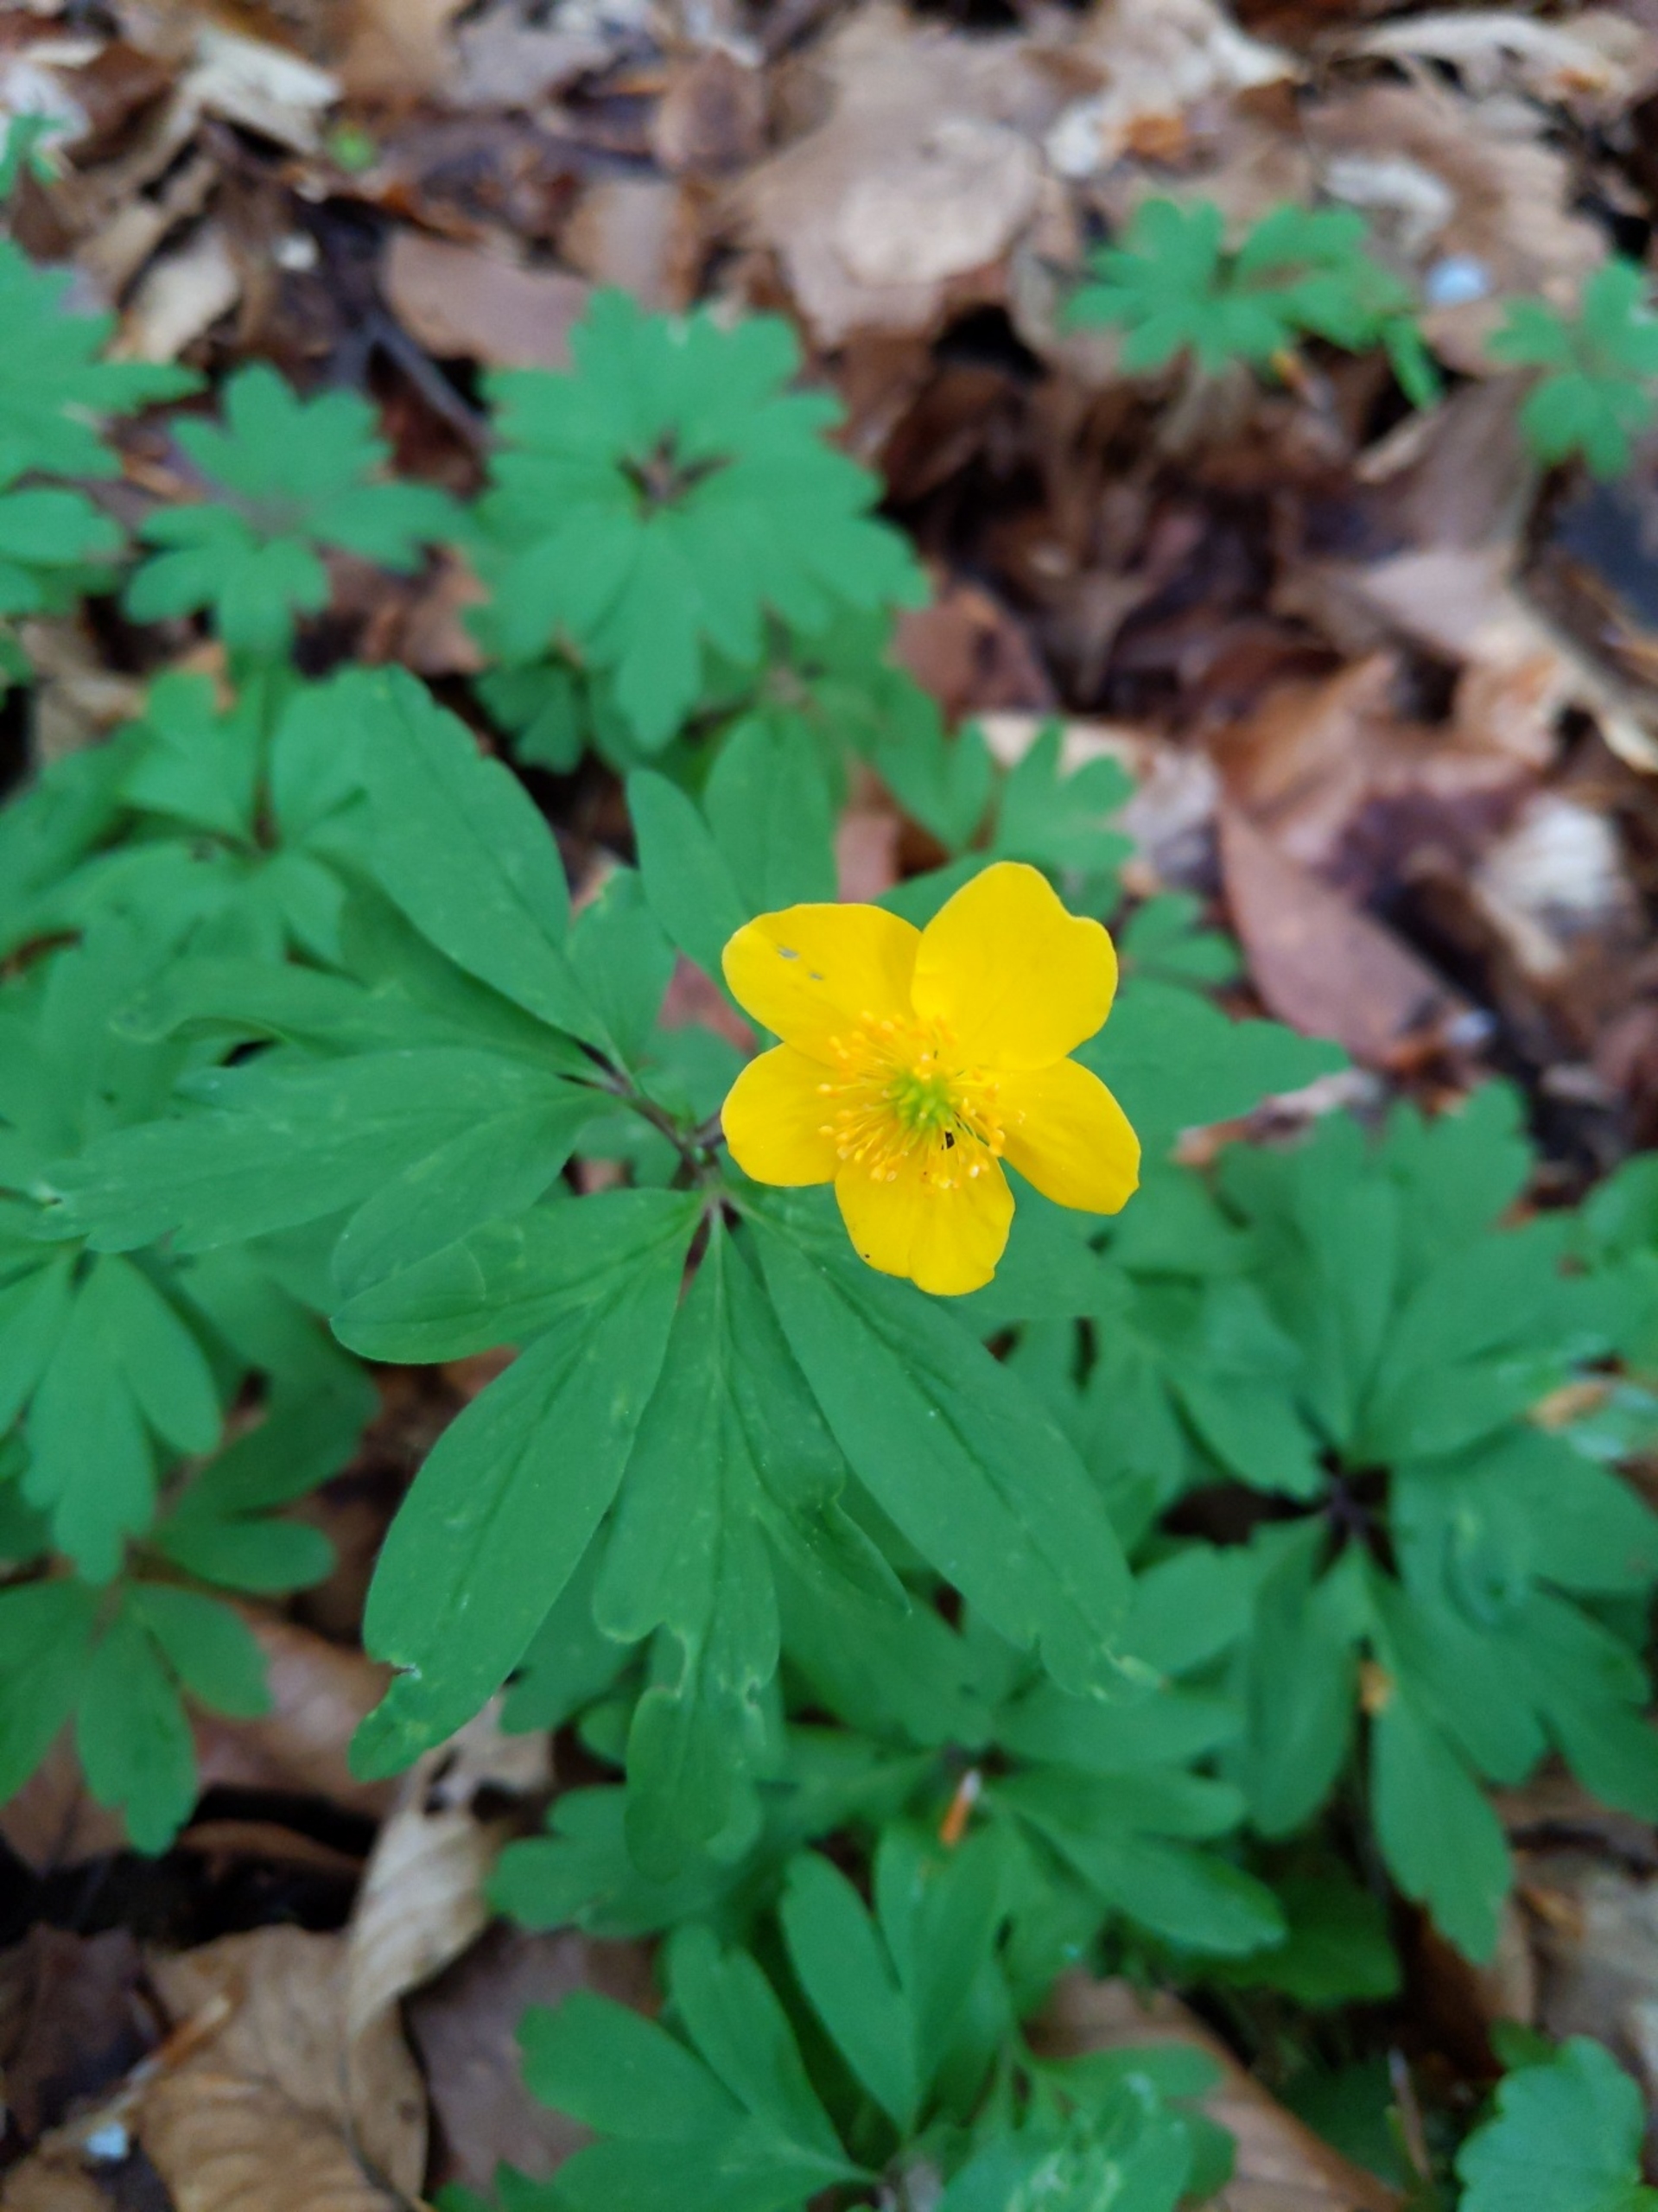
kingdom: Plantae
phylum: Tracheophyta
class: Magnoliopsida
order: Ranunculales
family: Ranunculaceae
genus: Anemone
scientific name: Anemone ranunculoides
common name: Gul anemone
